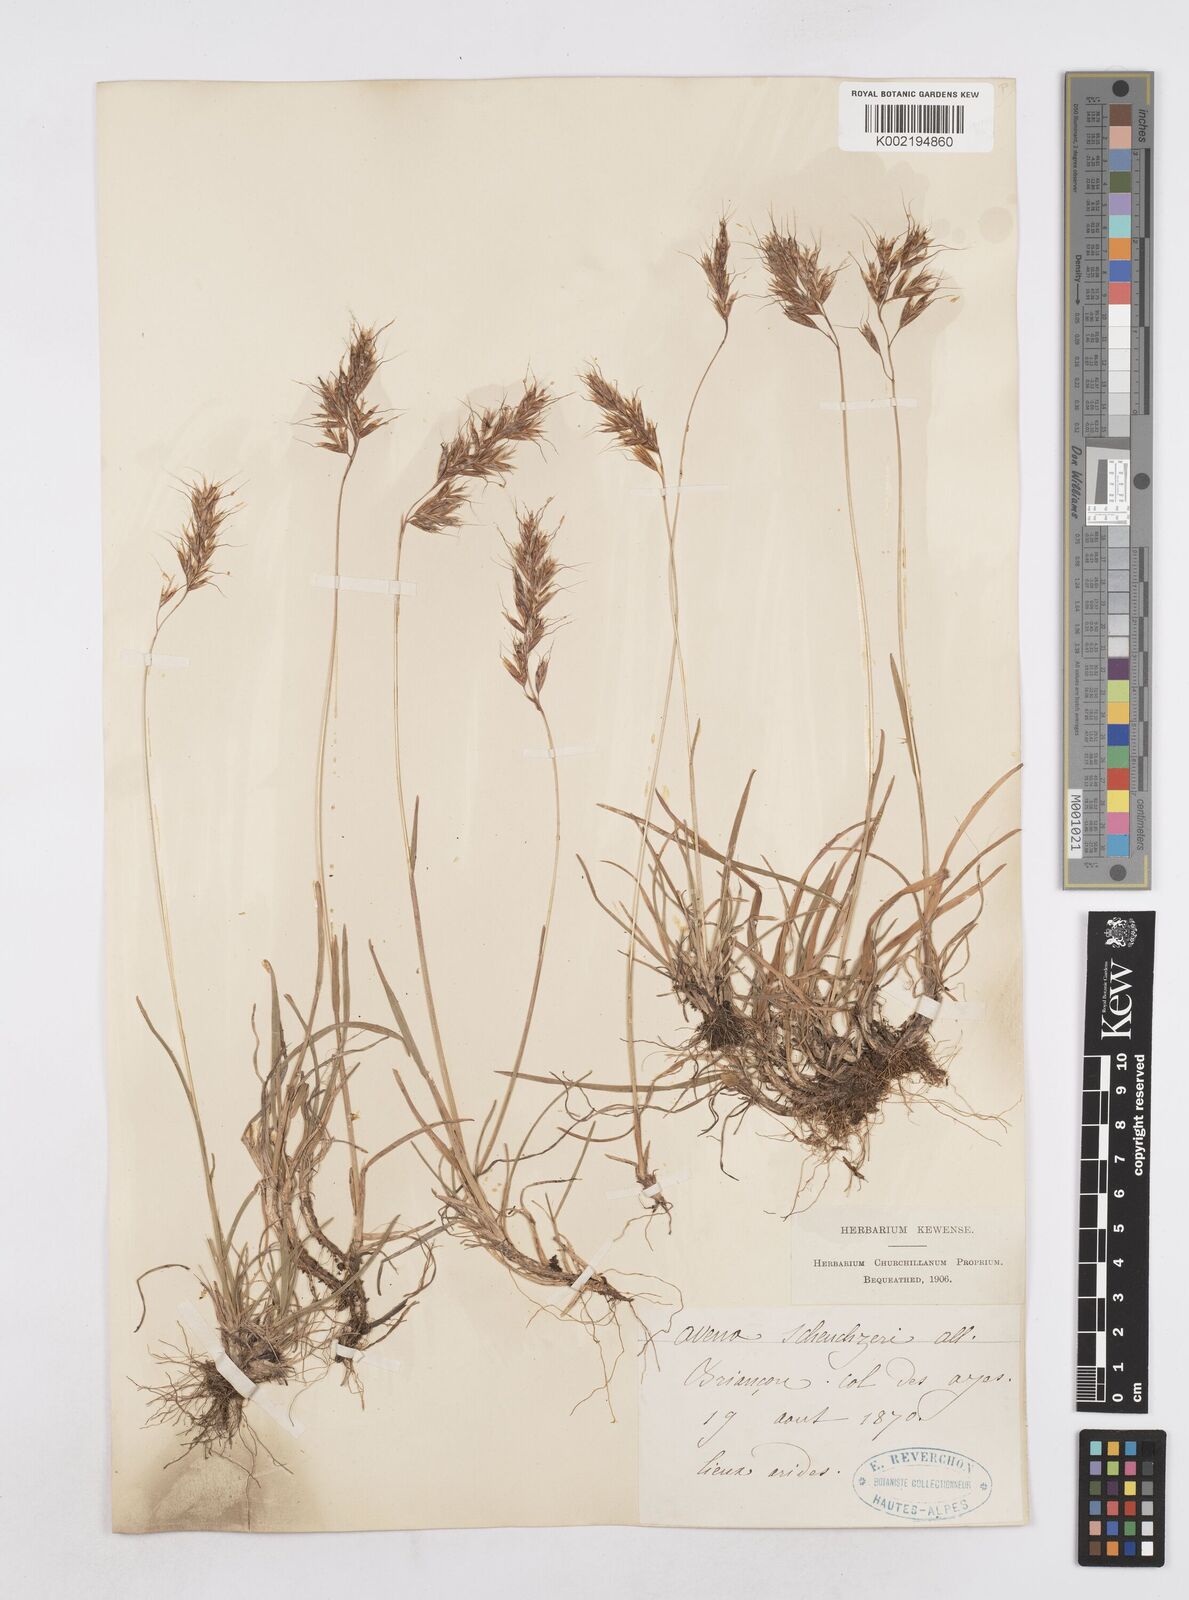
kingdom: Plantae
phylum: Tracheophyta
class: Liliopsida
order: Poales
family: Poaceae
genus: Helictochloa
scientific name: Helictochloa versicolor
